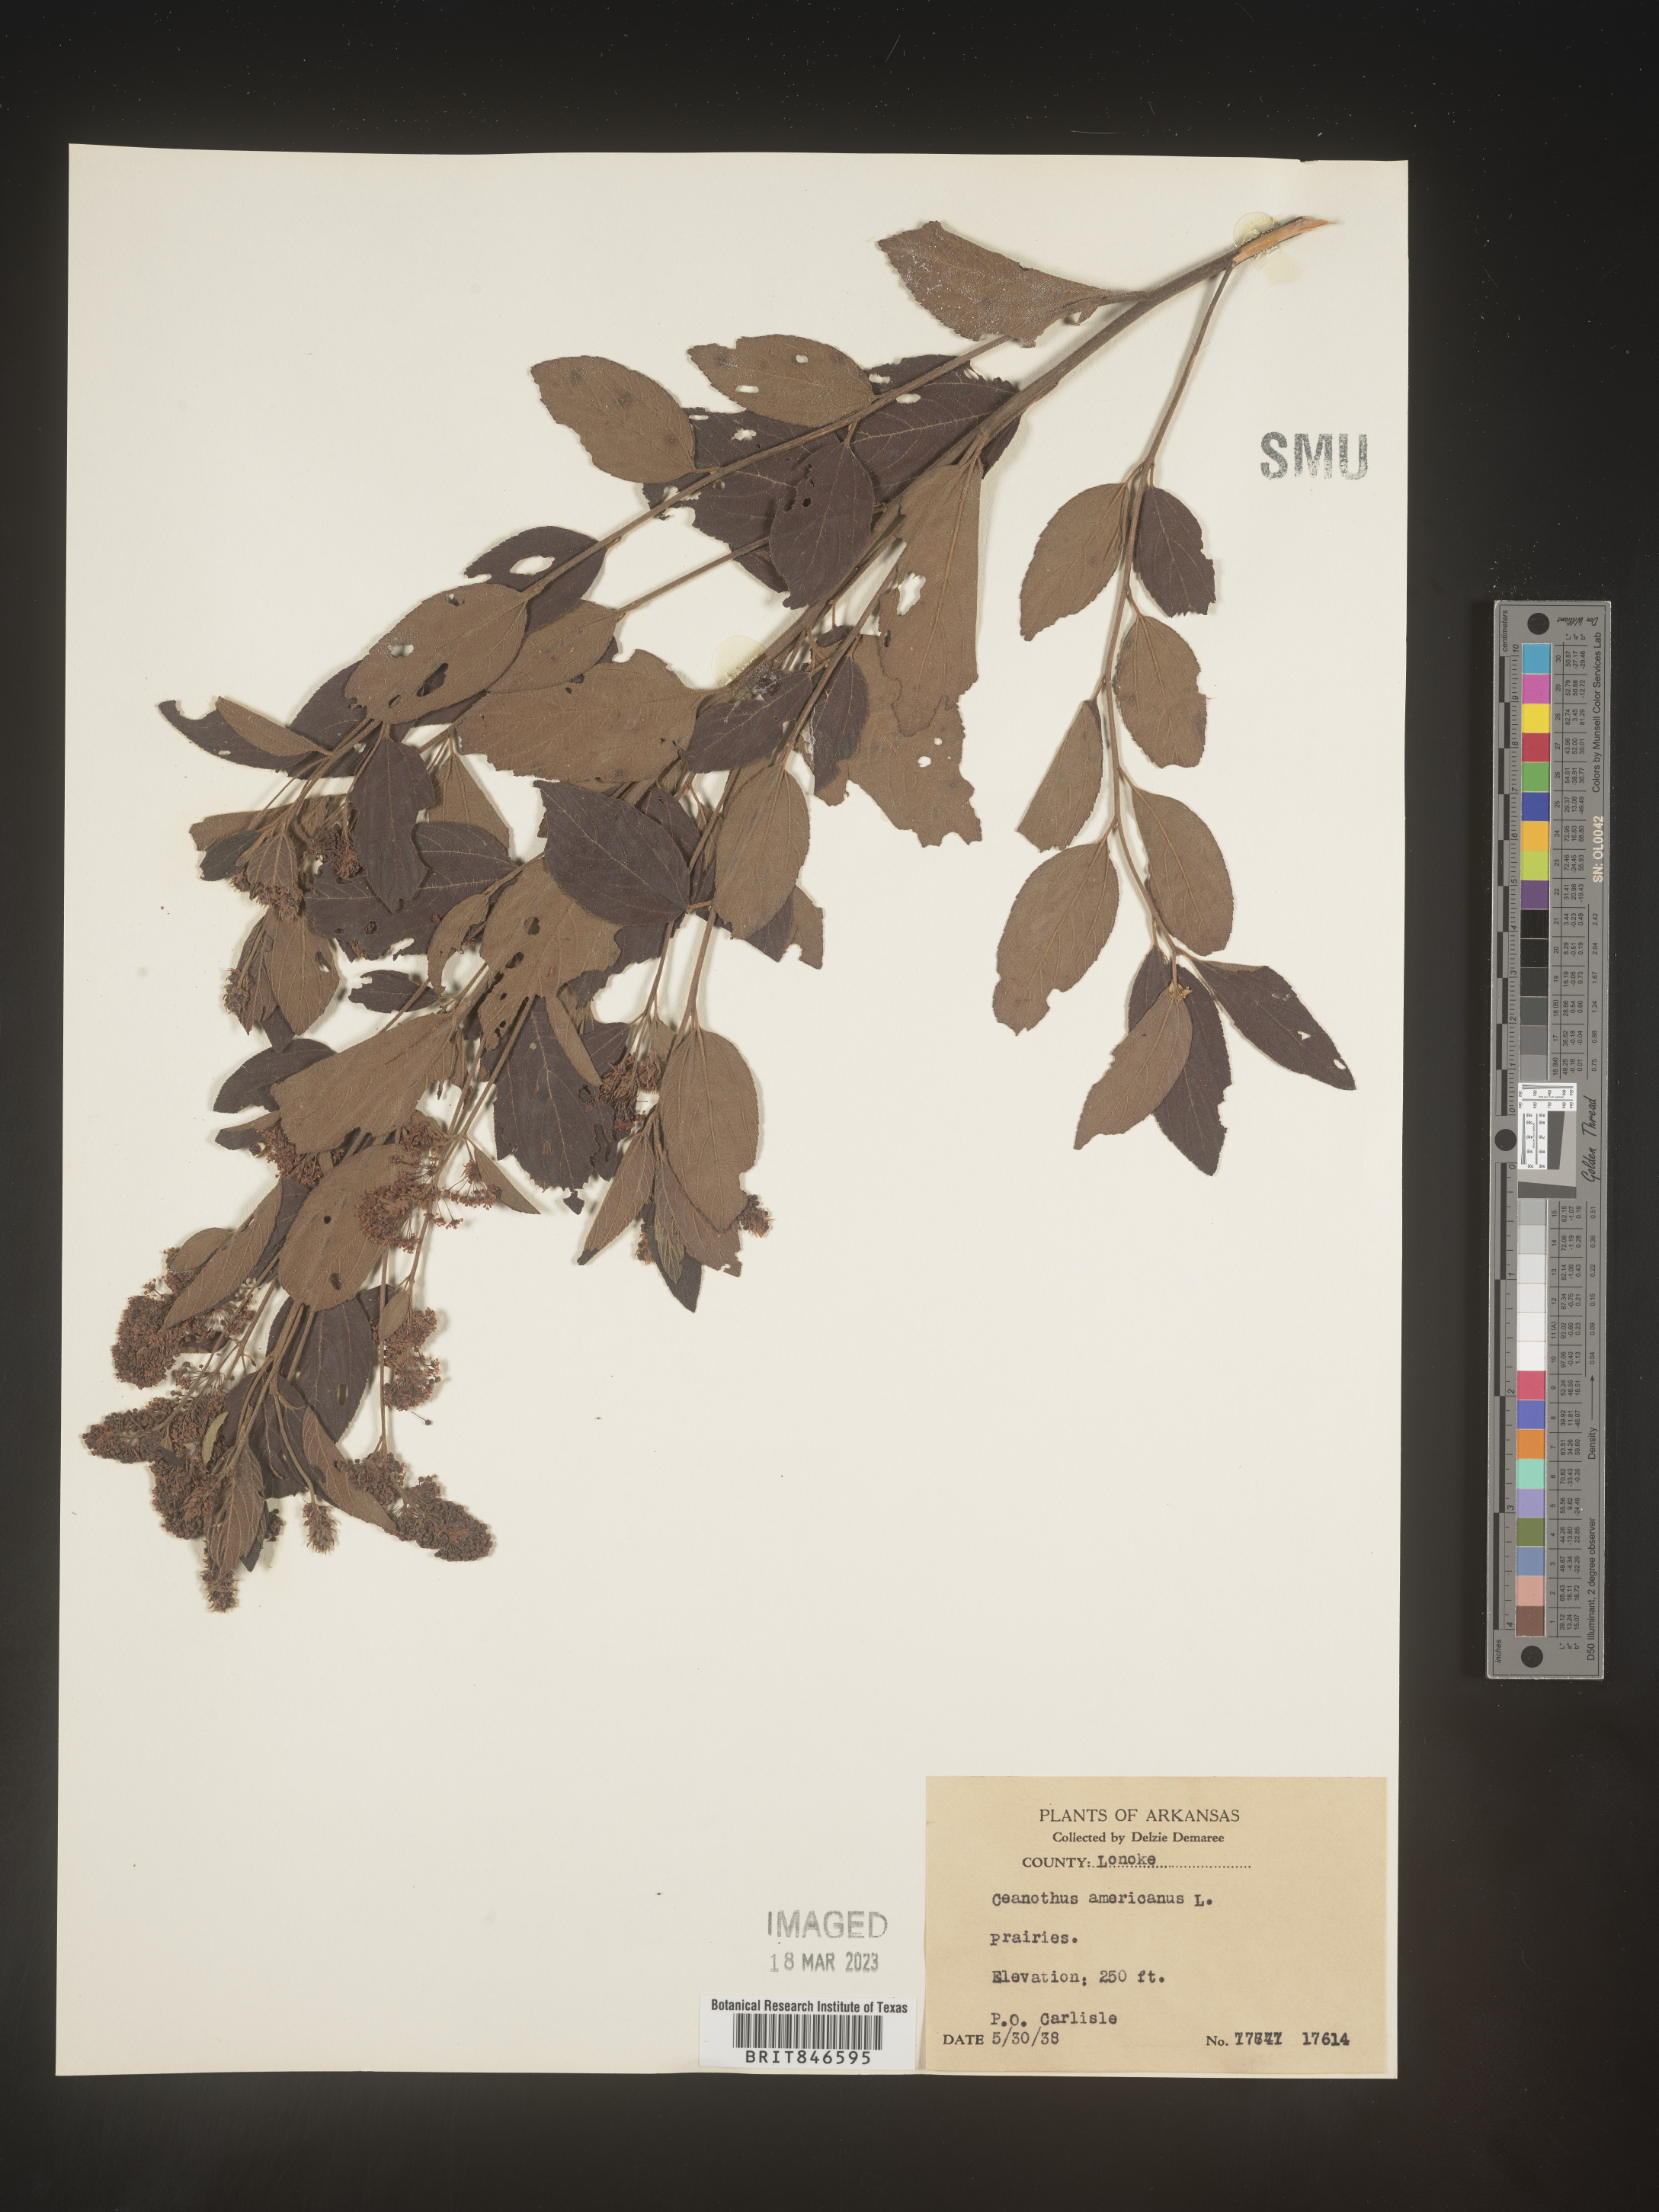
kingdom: Plantae
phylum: Tracheophyta
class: Magnoliopsida
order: Rosales
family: Rhamnaceae
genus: Ceanothus
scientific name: Ceanothus americanus
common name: Redroot
